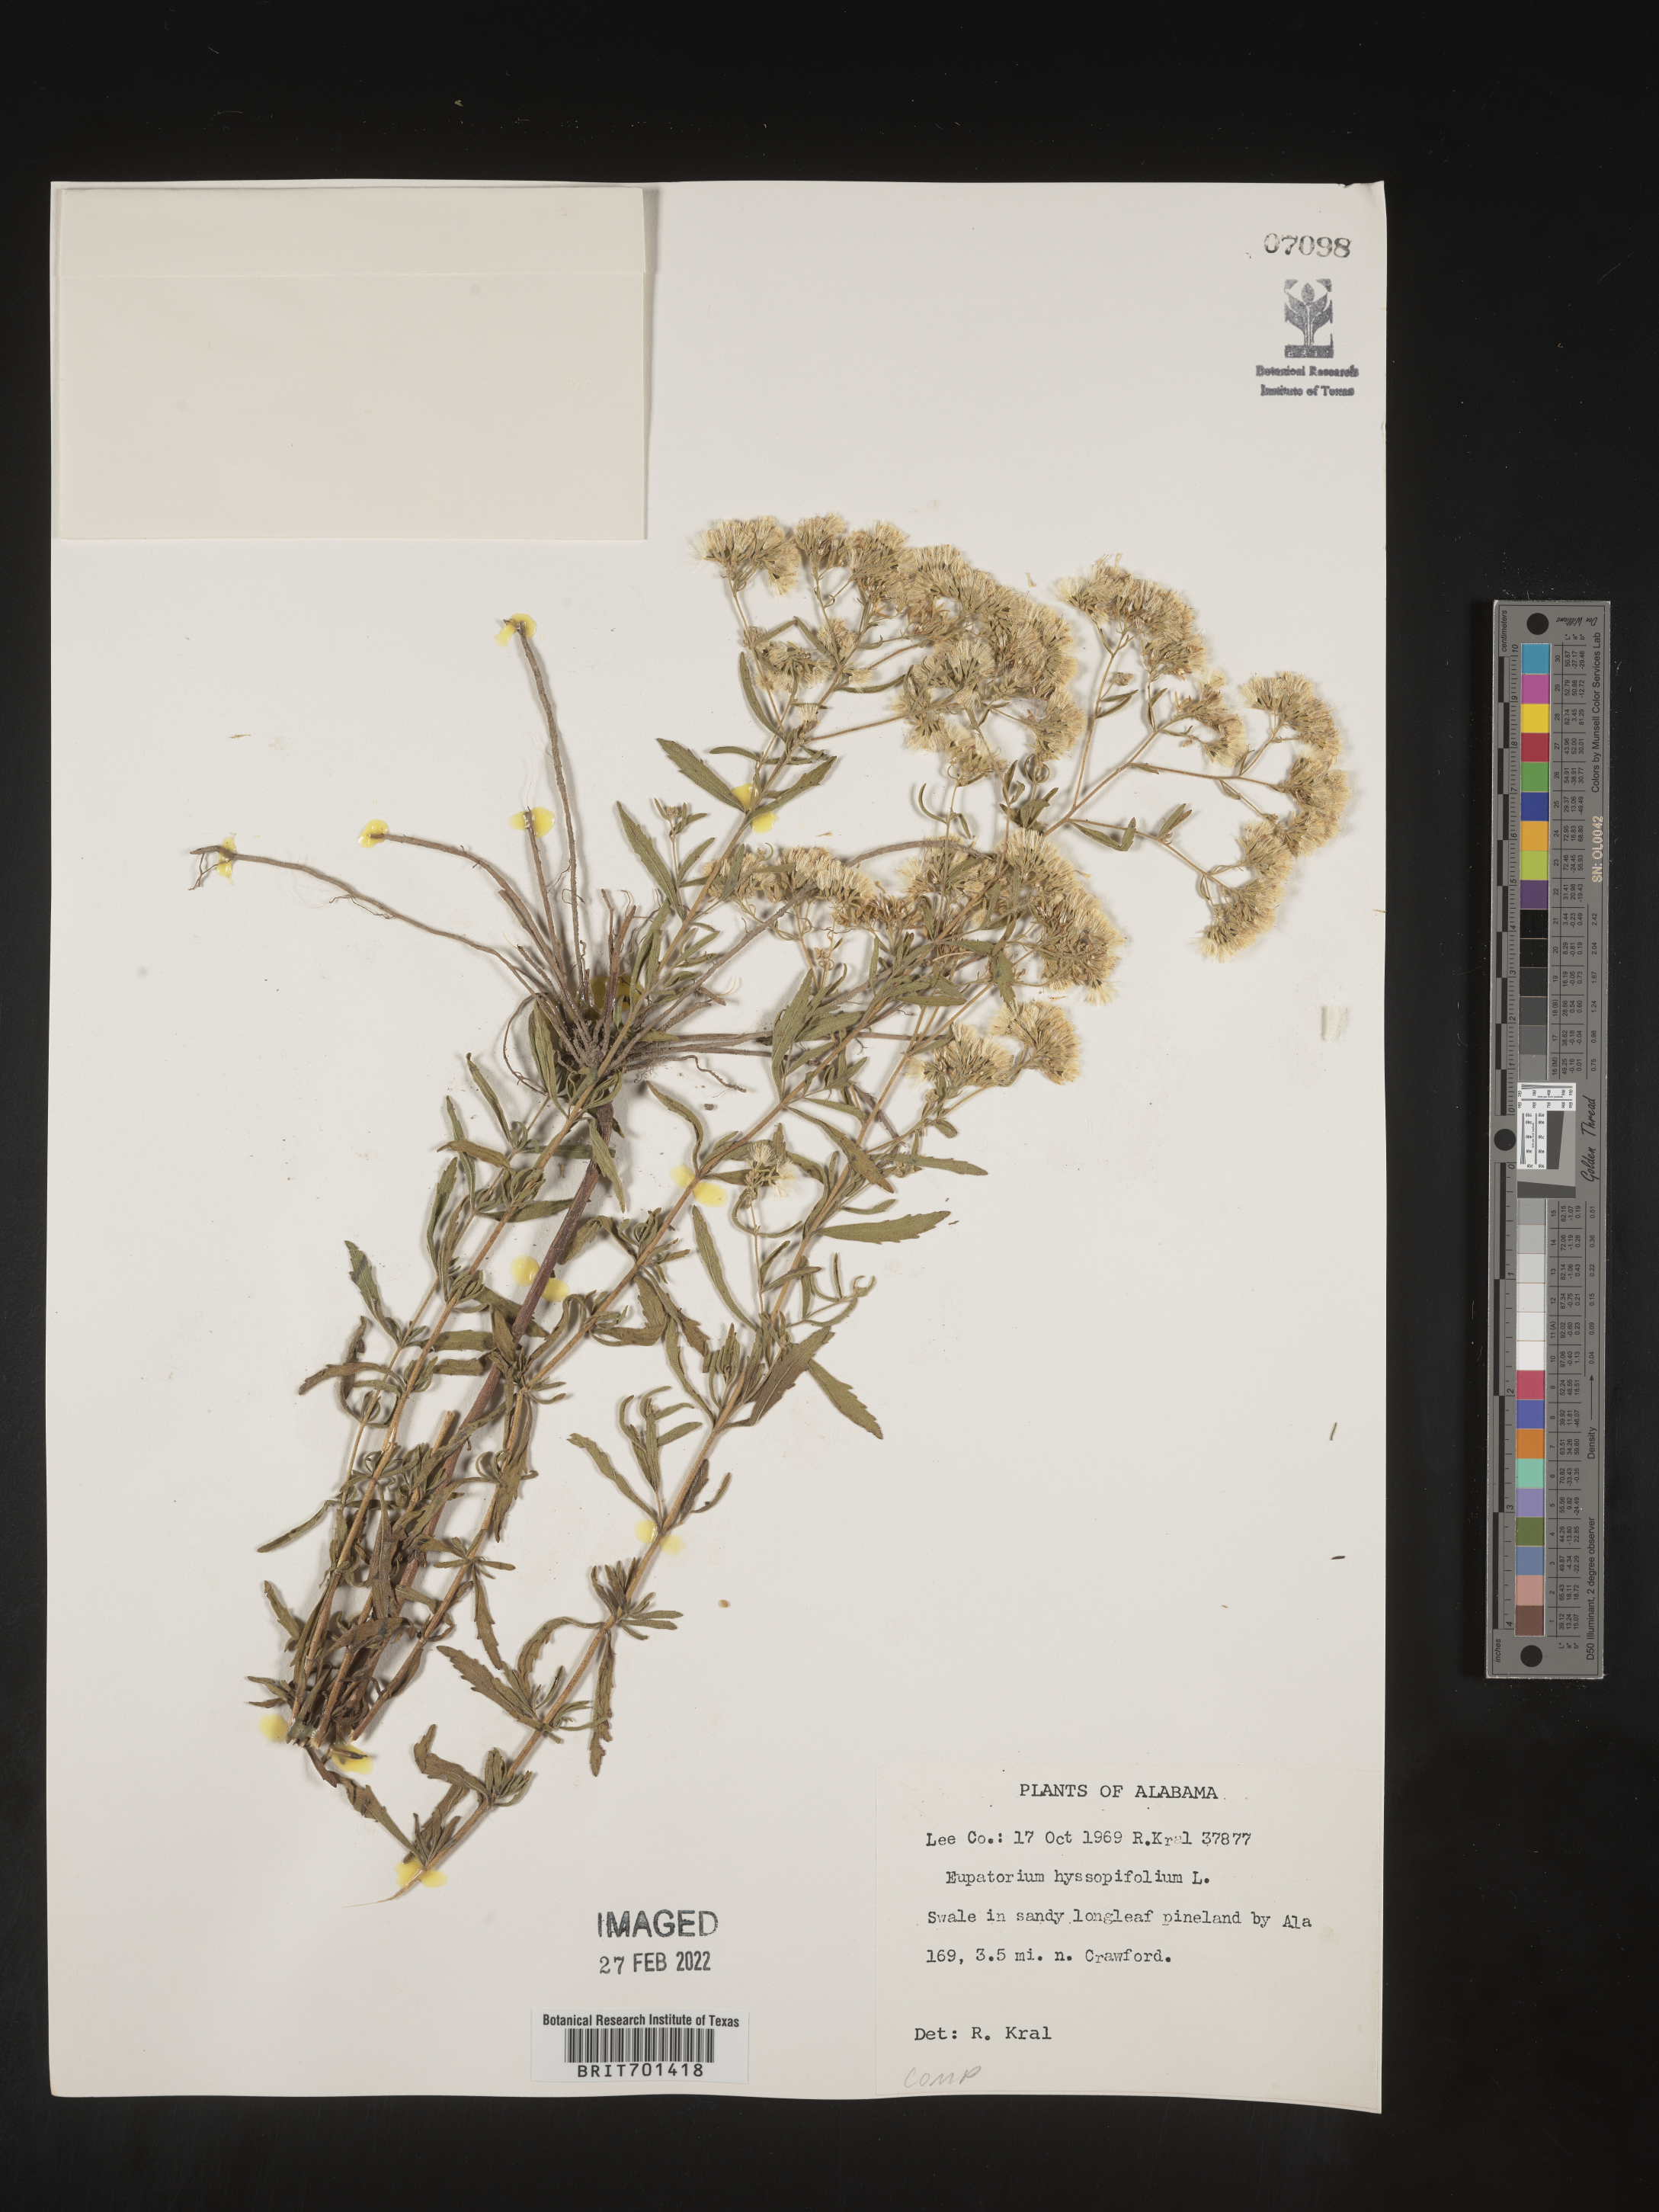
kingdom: Plantae
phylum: Tracheophyta
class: Magnoliopsida
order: Asterales
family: Asteraceae
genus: Eupatorium
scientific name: Eupatorium hyssopifolium
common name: Hyssop-leaf thoroughwort
